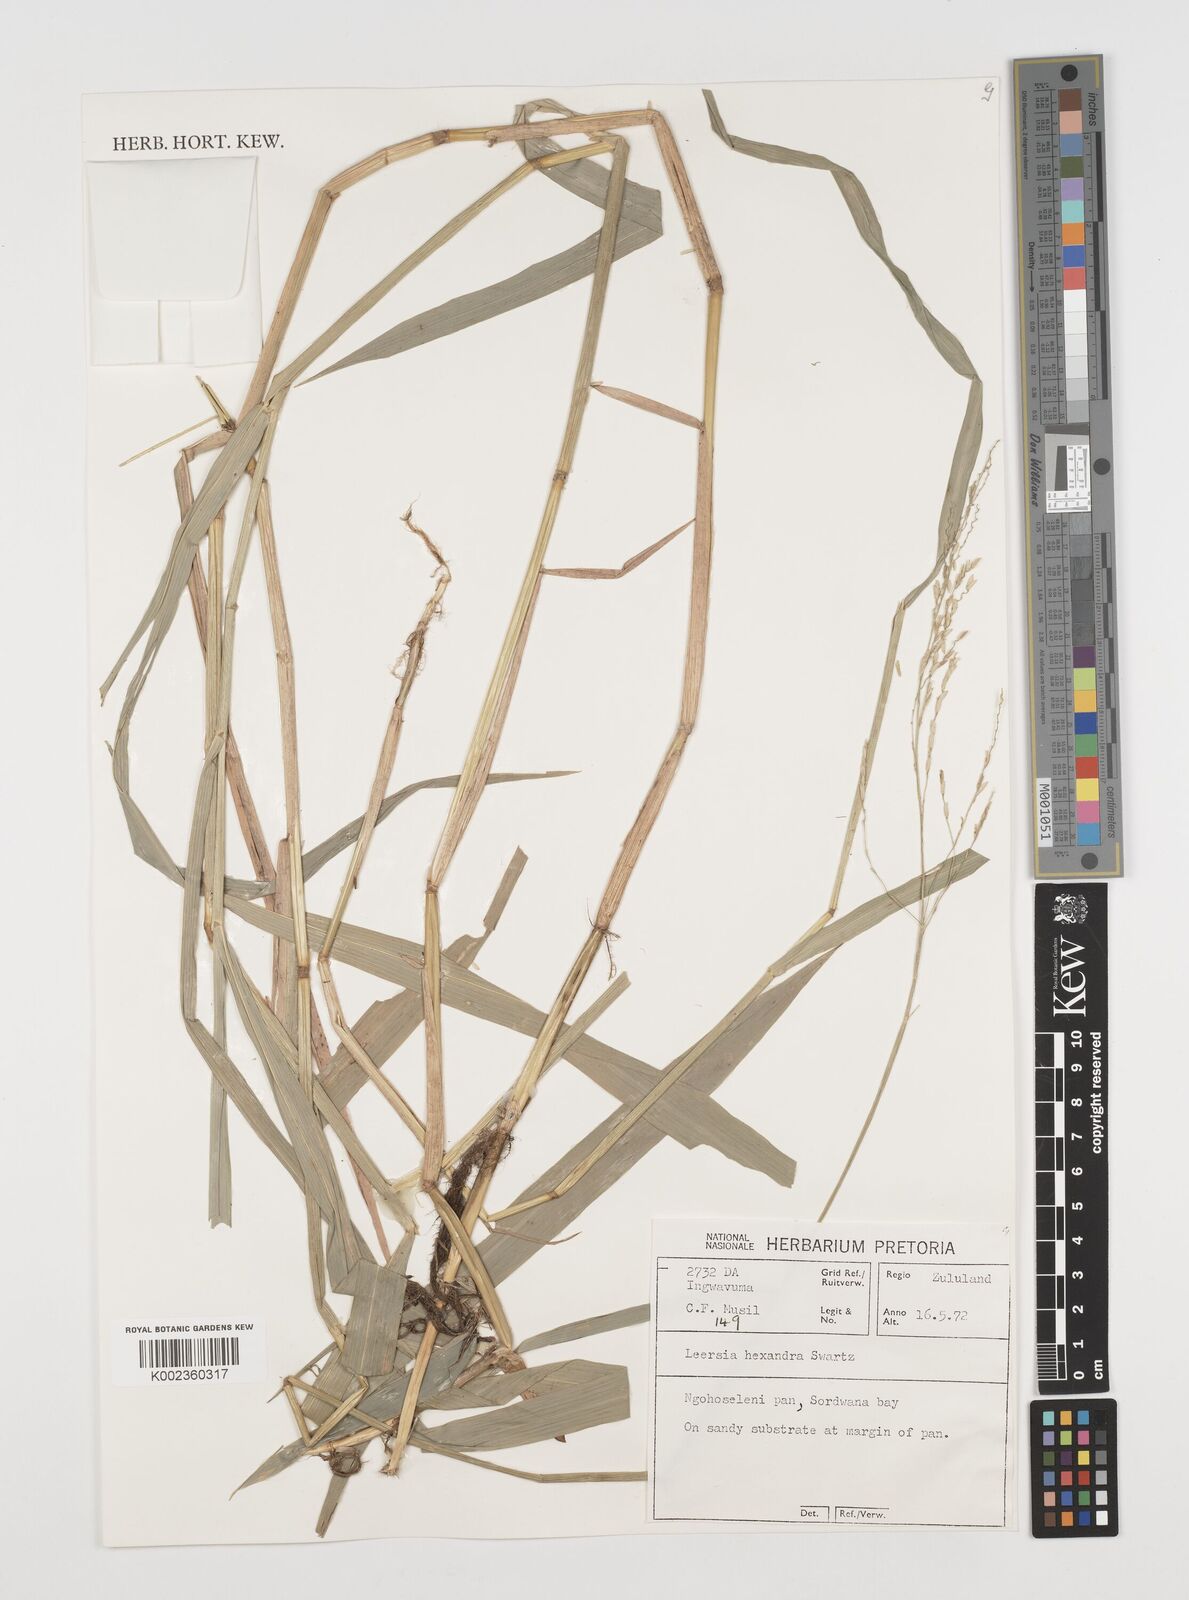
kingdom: Plantae
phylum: Tracheophyta
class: Liliopsida
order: Poales
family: Poaceae
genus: Leersia
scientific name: Leersia hexandra
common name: Southern cut grass
